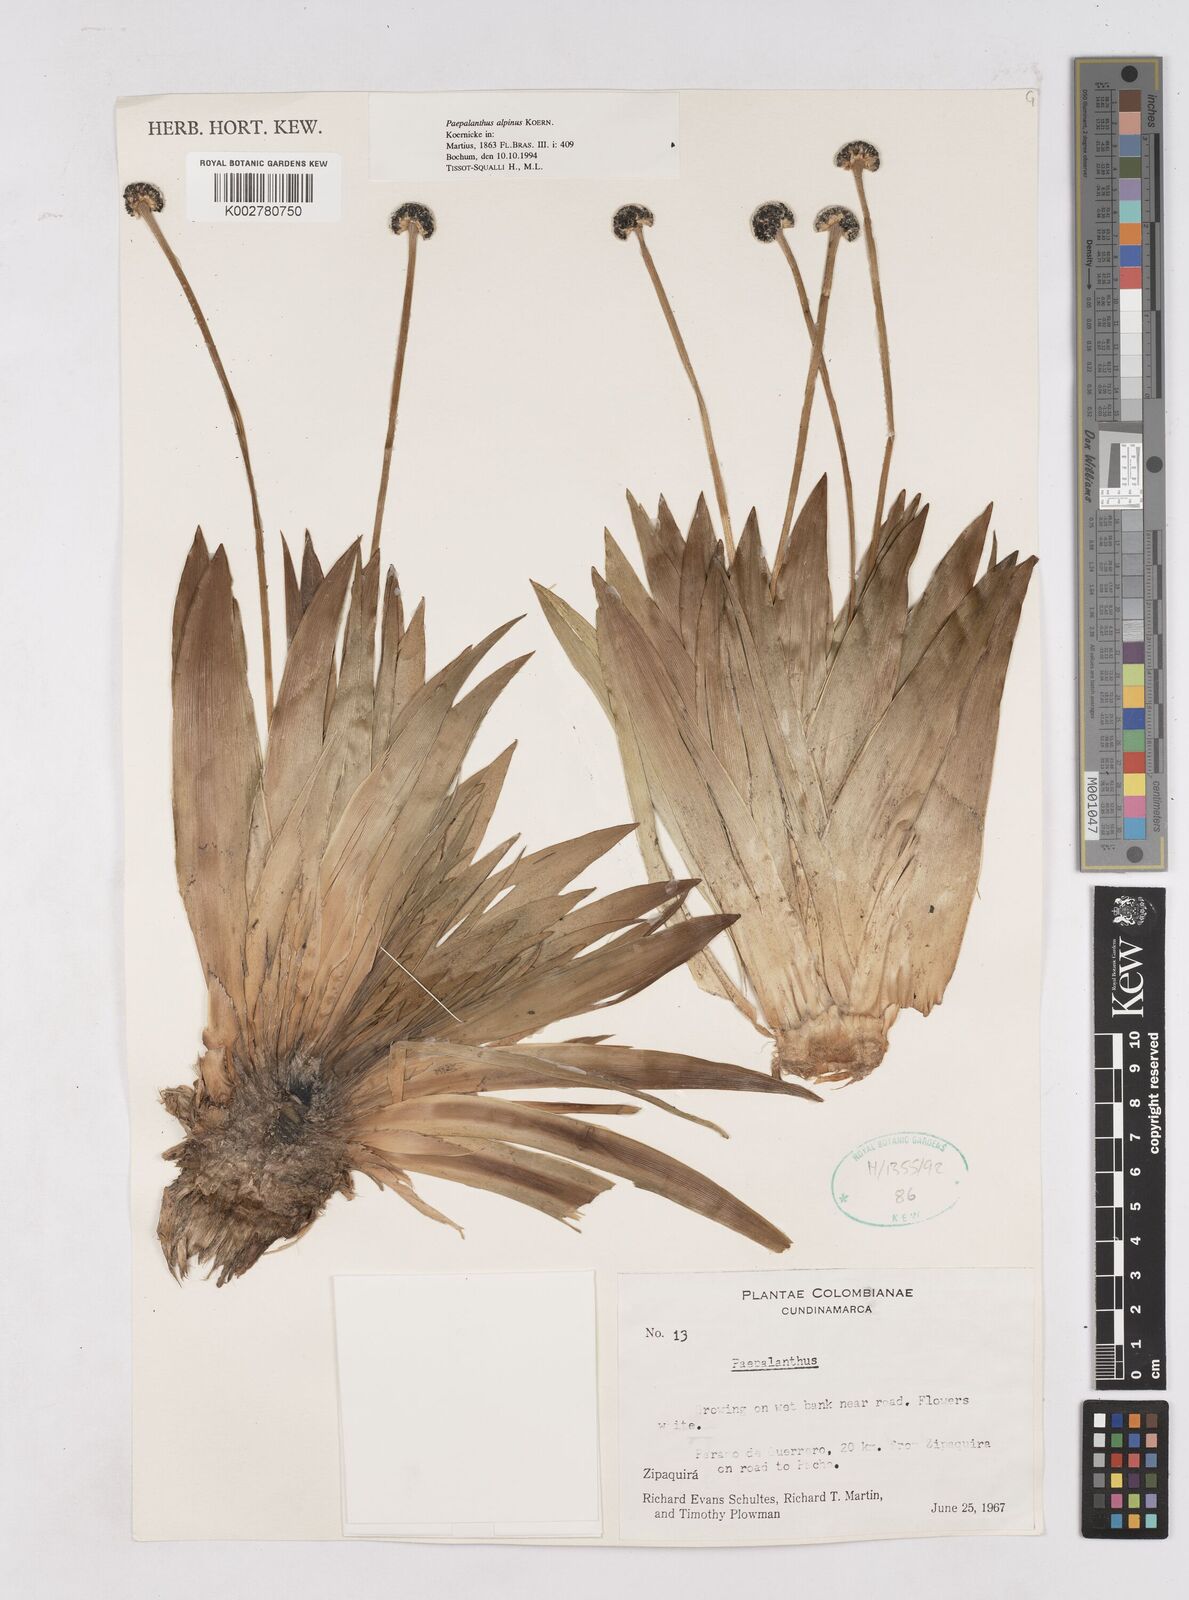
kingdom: Plantae
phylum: Tracheophyta
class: Liliopsida
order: Poales
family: Eriocaulaceae
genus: Paepalanthus
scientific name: Paepalanthus alpinus
